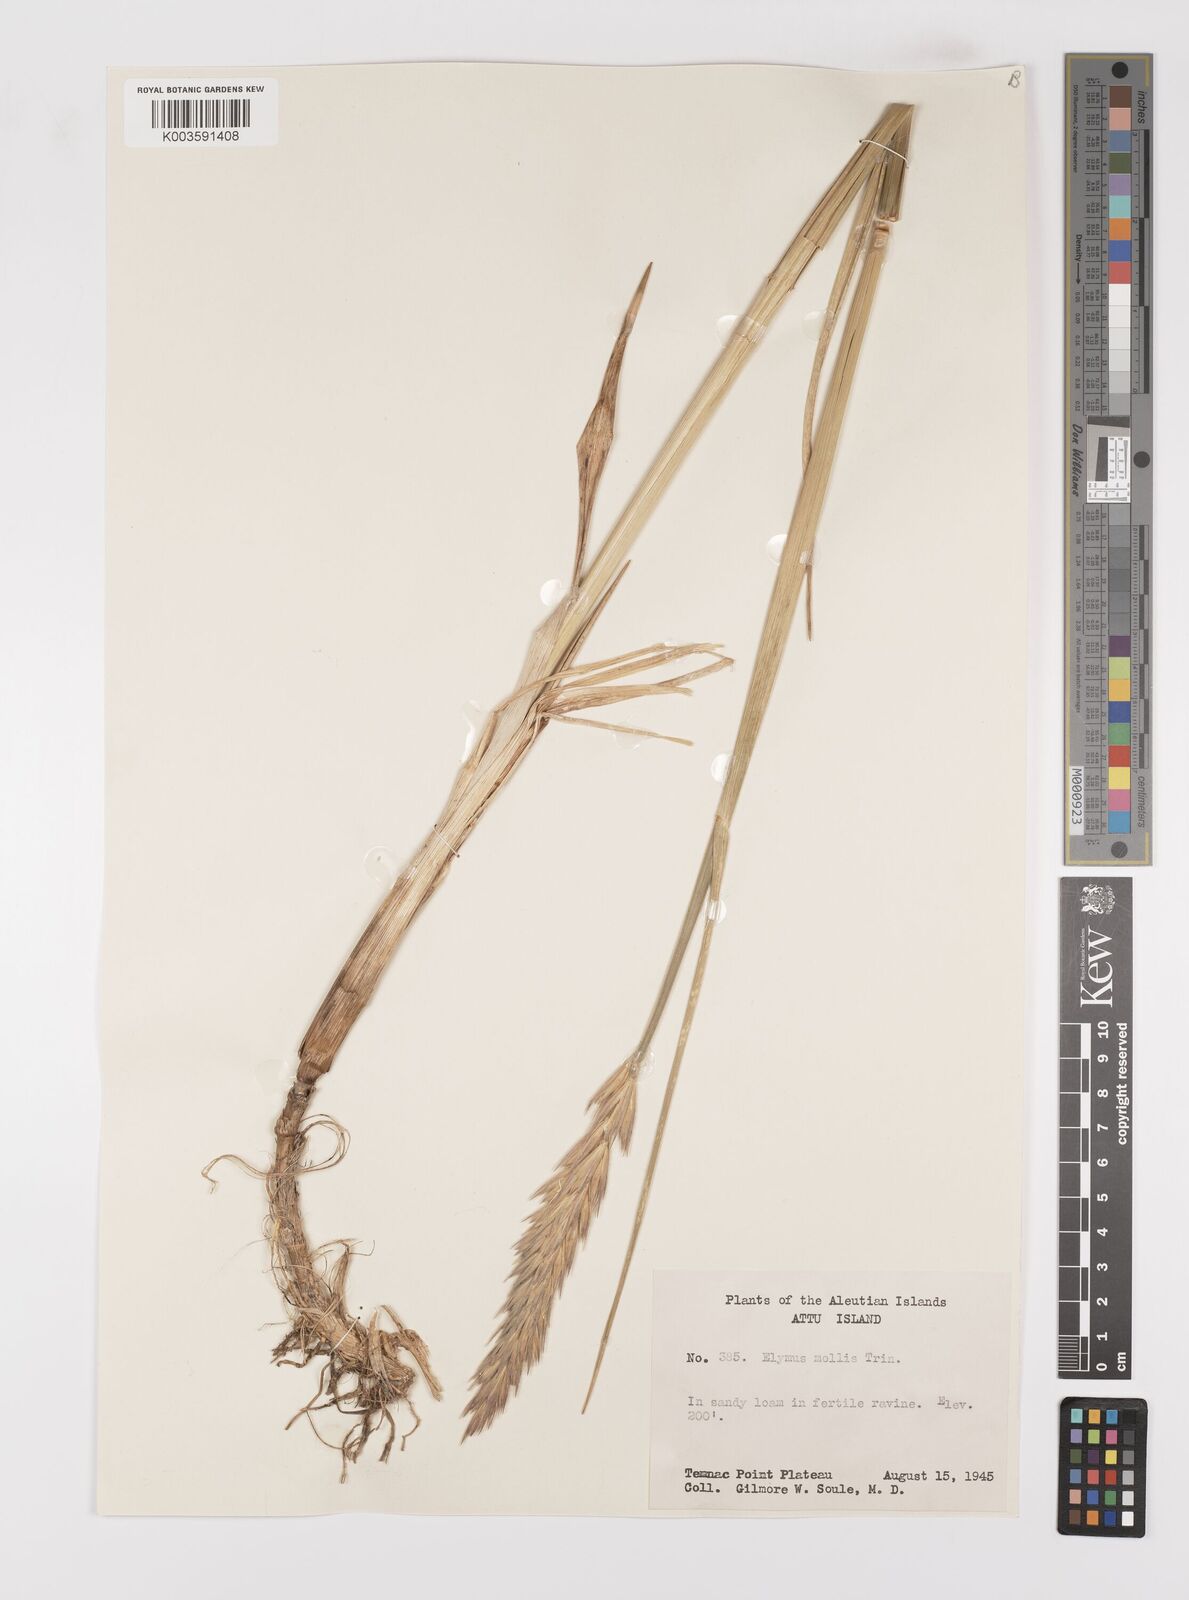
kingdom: Plantae
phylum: Tracheophyta
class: Liliopsida
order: Poales
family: Poaceae
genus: Leymus
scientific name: Leymus mollis
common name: American dune grass
